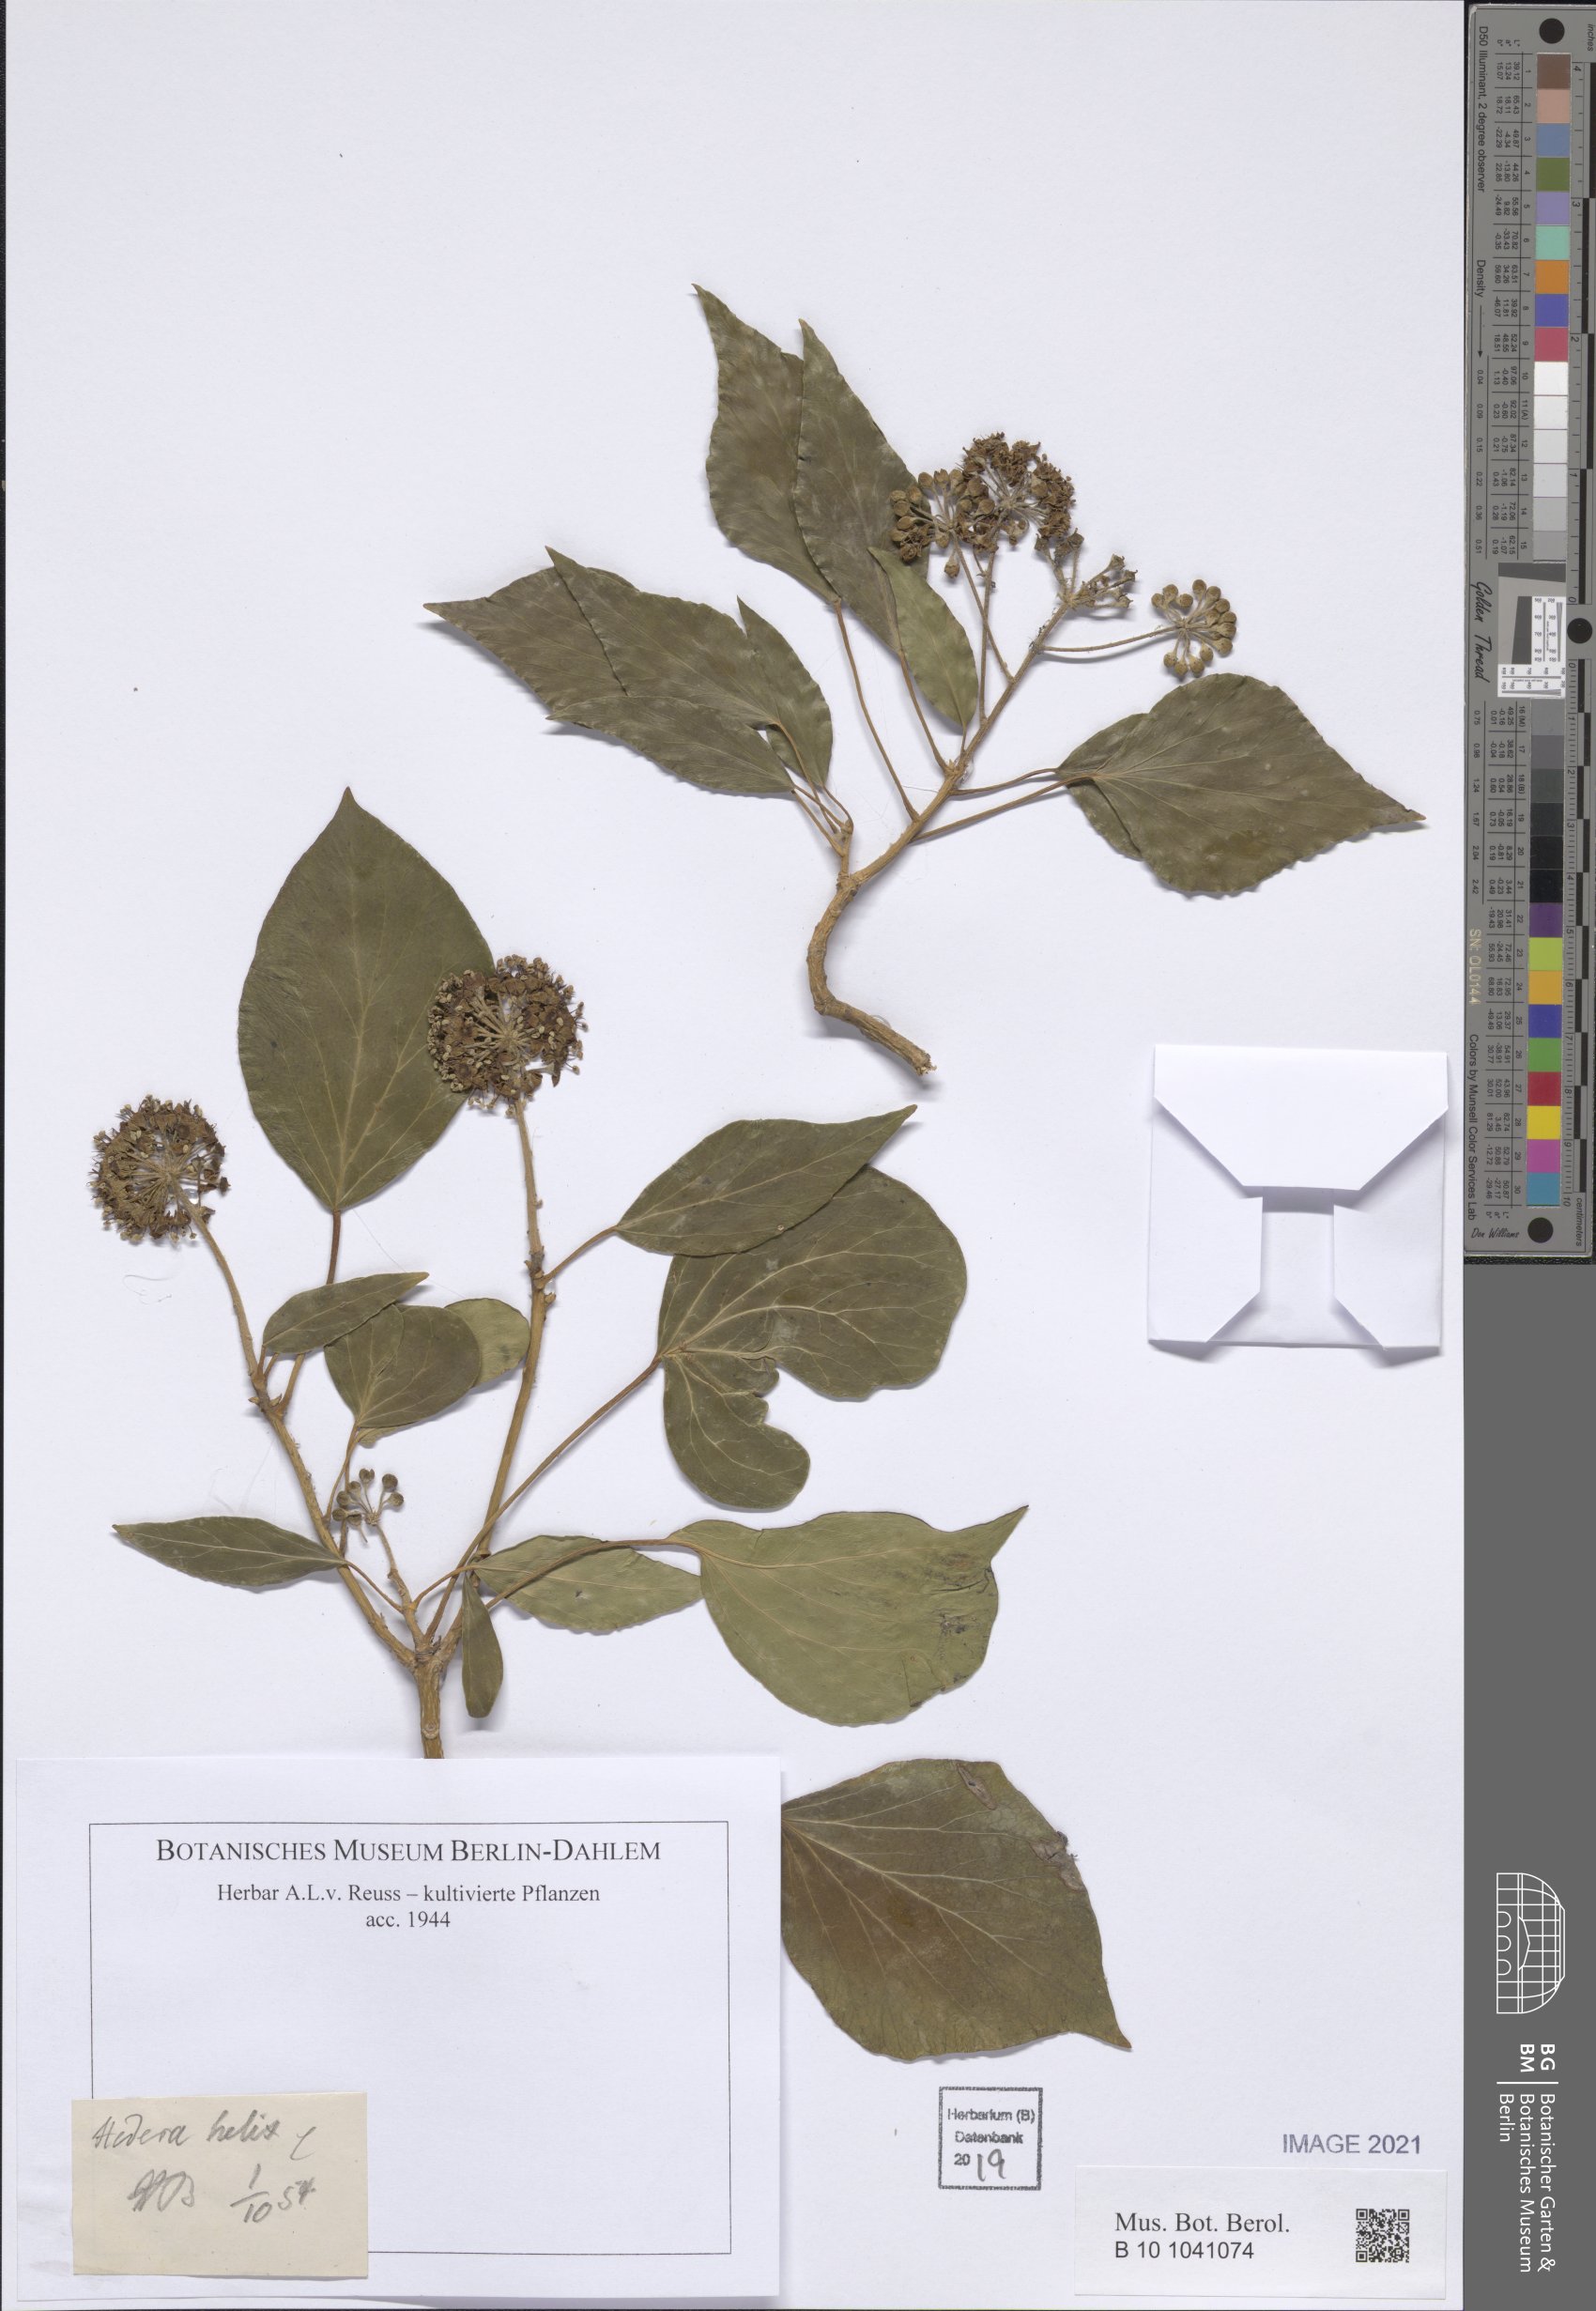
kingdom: Plantae
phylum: Tracheophyta
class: Magnoliopsida
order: Apiales
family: Araliaceae
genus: Hedera
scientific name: Hedera helix
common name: Ivy
